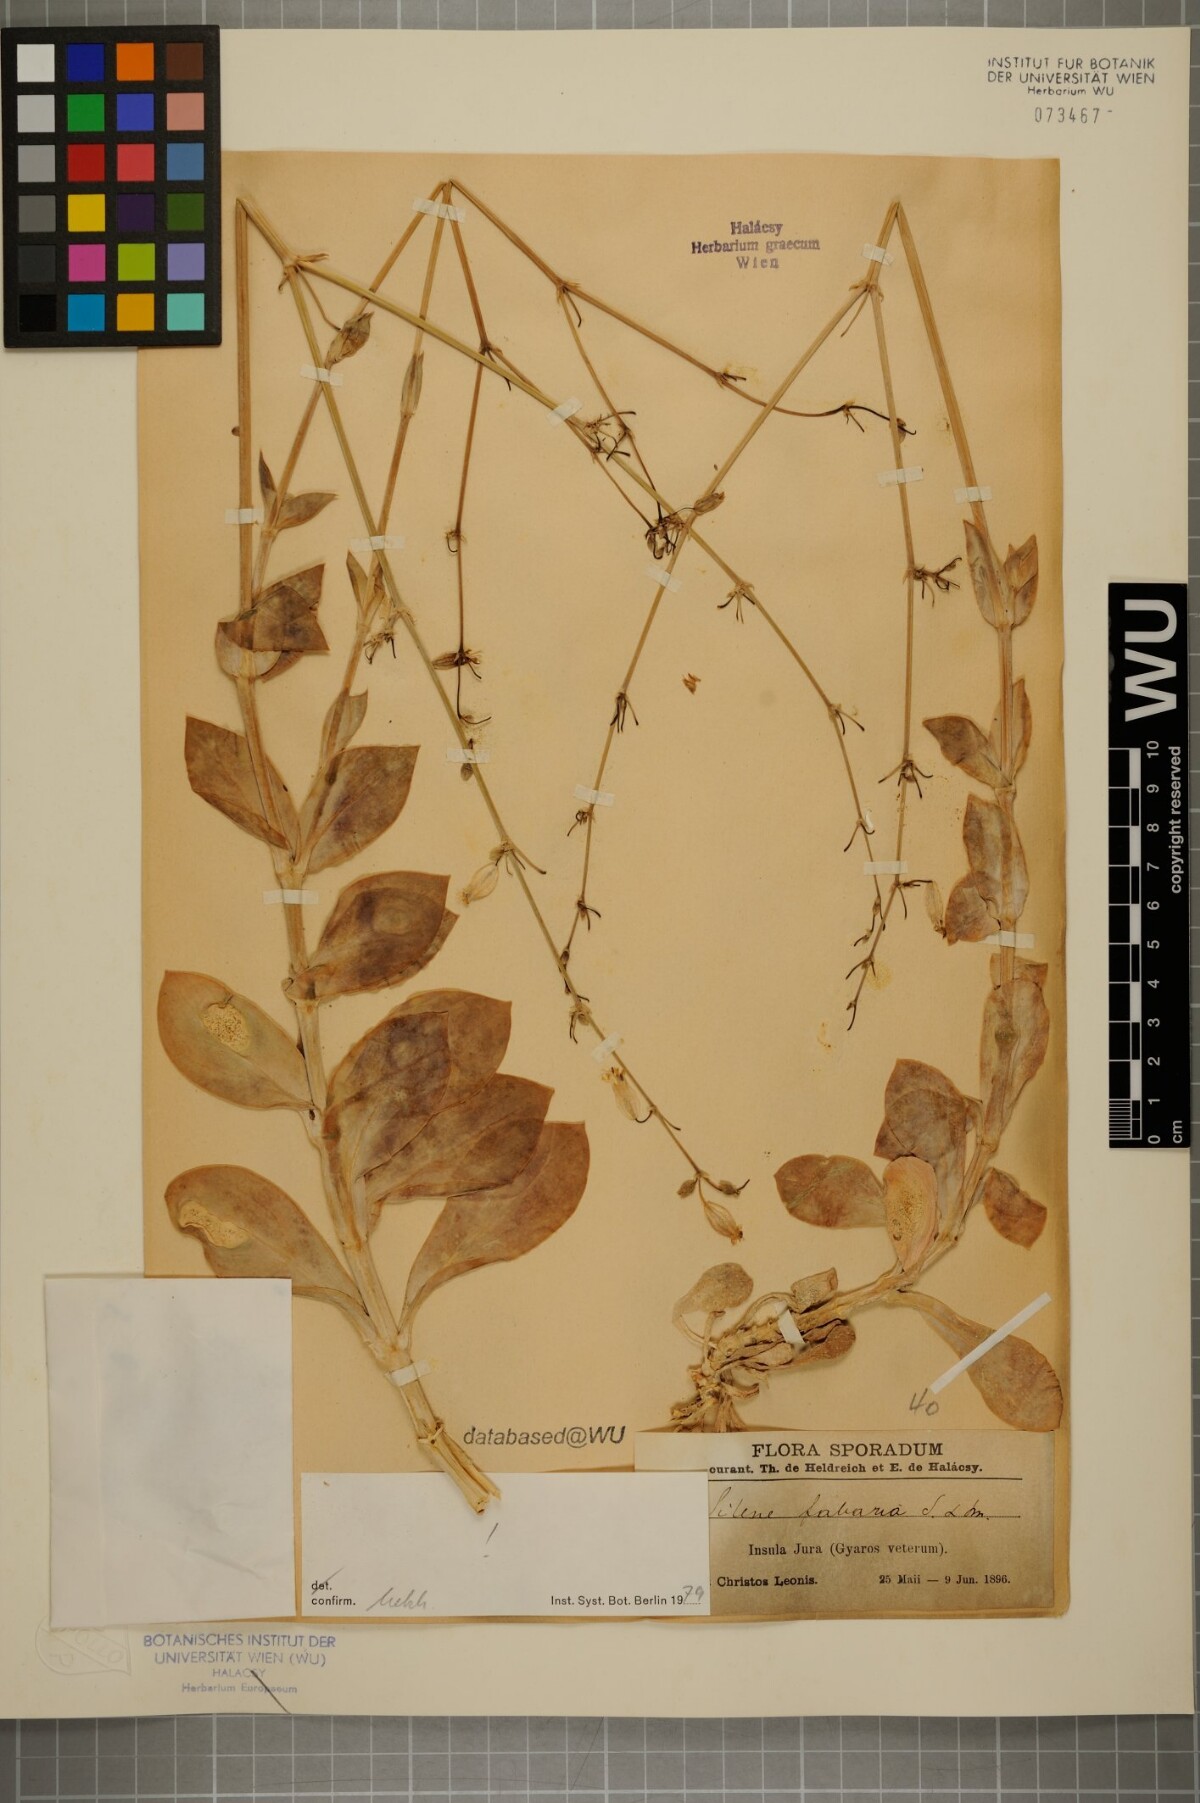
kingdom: Plantae
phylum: Tracheophyta
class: Magnoliopsida
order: Caryophyllales
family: Caryophyllaceae
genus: Silene
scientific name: Silene fabaria
